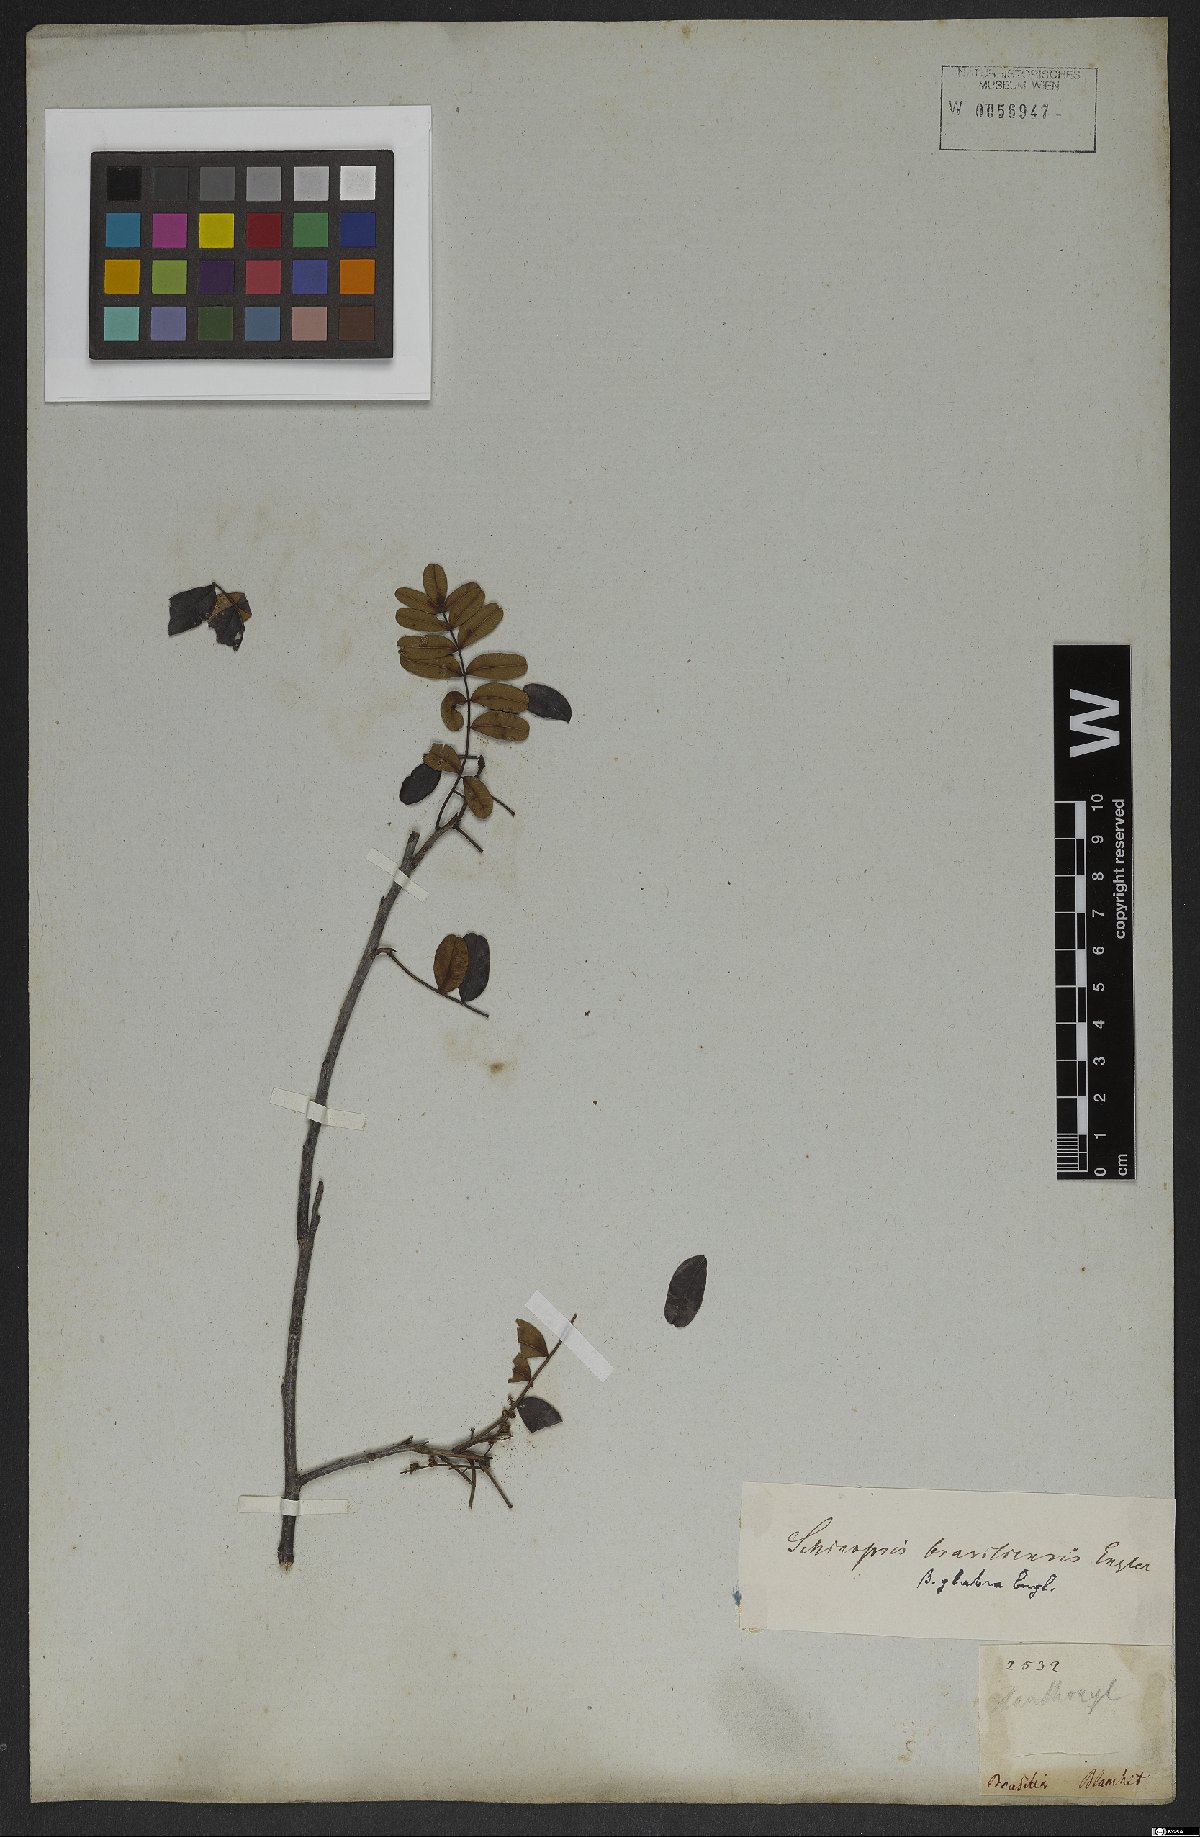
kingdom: Plantae
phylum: Tracheophyta
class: Magnoliopsida
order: Sapindales
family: Anacardiaceae
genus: Schinopsis
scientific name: Schinopsis brasiliensis
